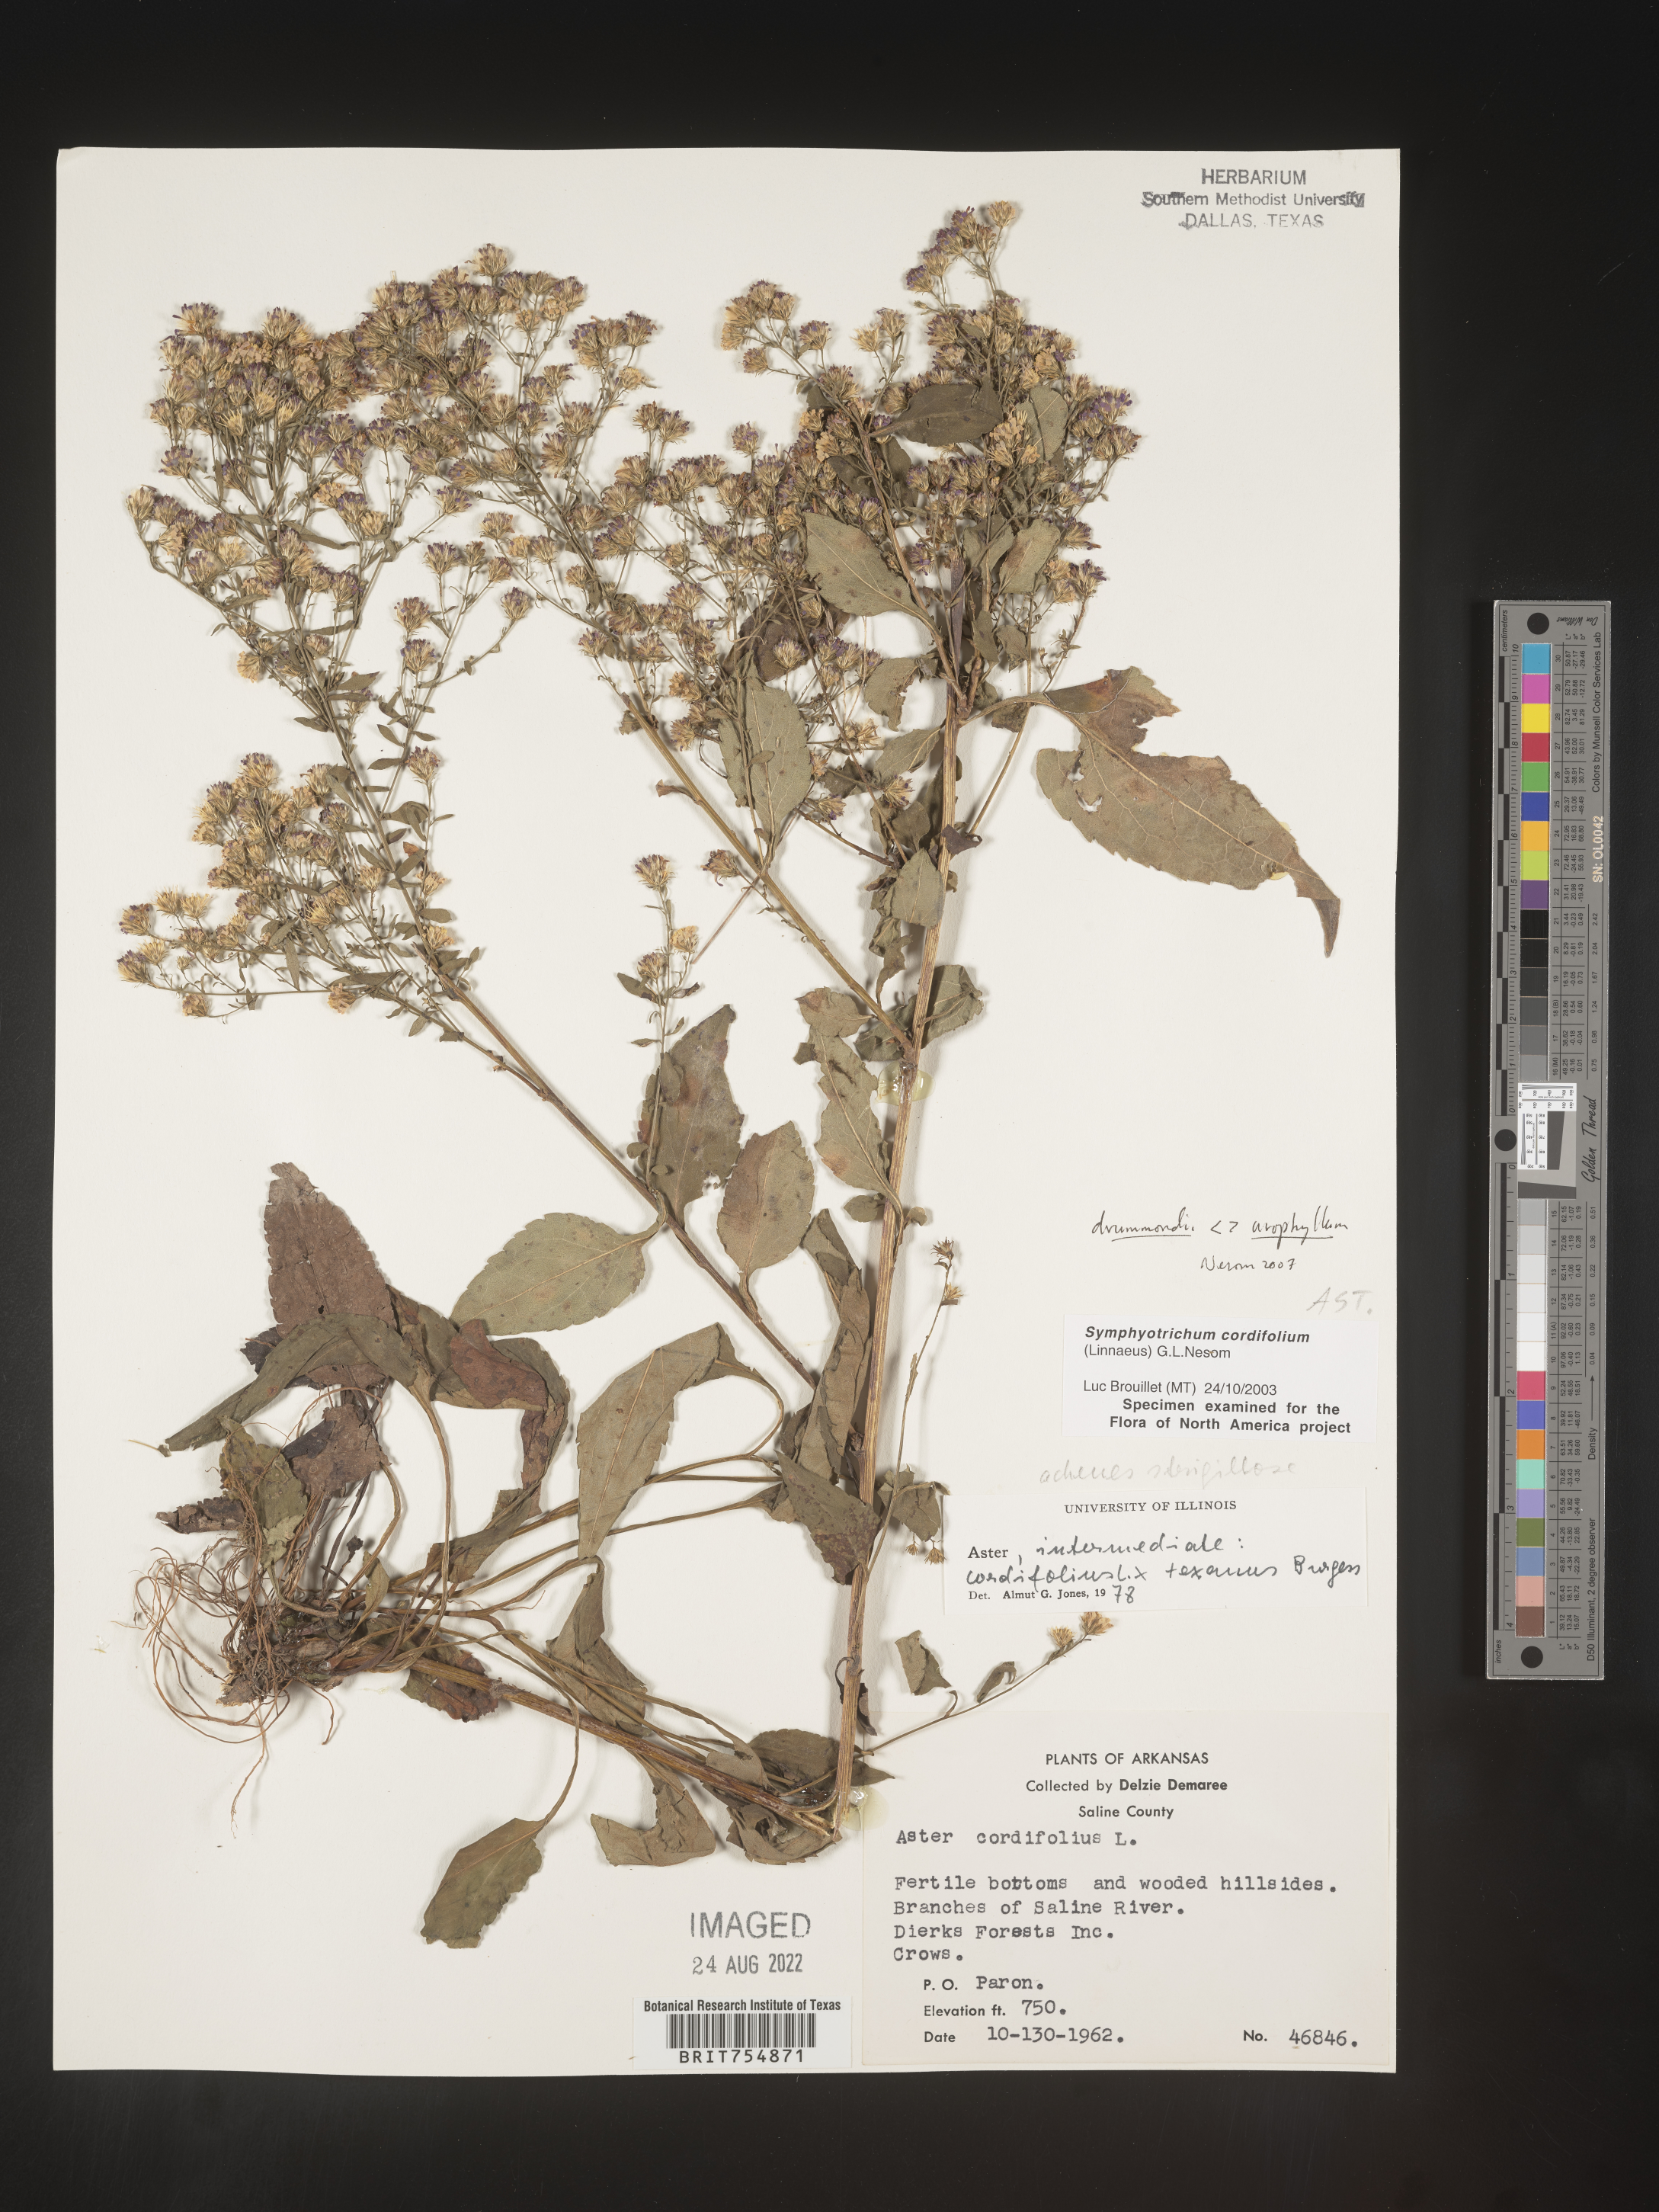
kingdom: Plantae
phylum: Tracheophyta
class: Magnoliopsida
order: Asterales
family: Asteraceae
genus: Symphyotrichum
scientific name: Symphyotrichum urophyllum
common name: Arrow-leaved aster
